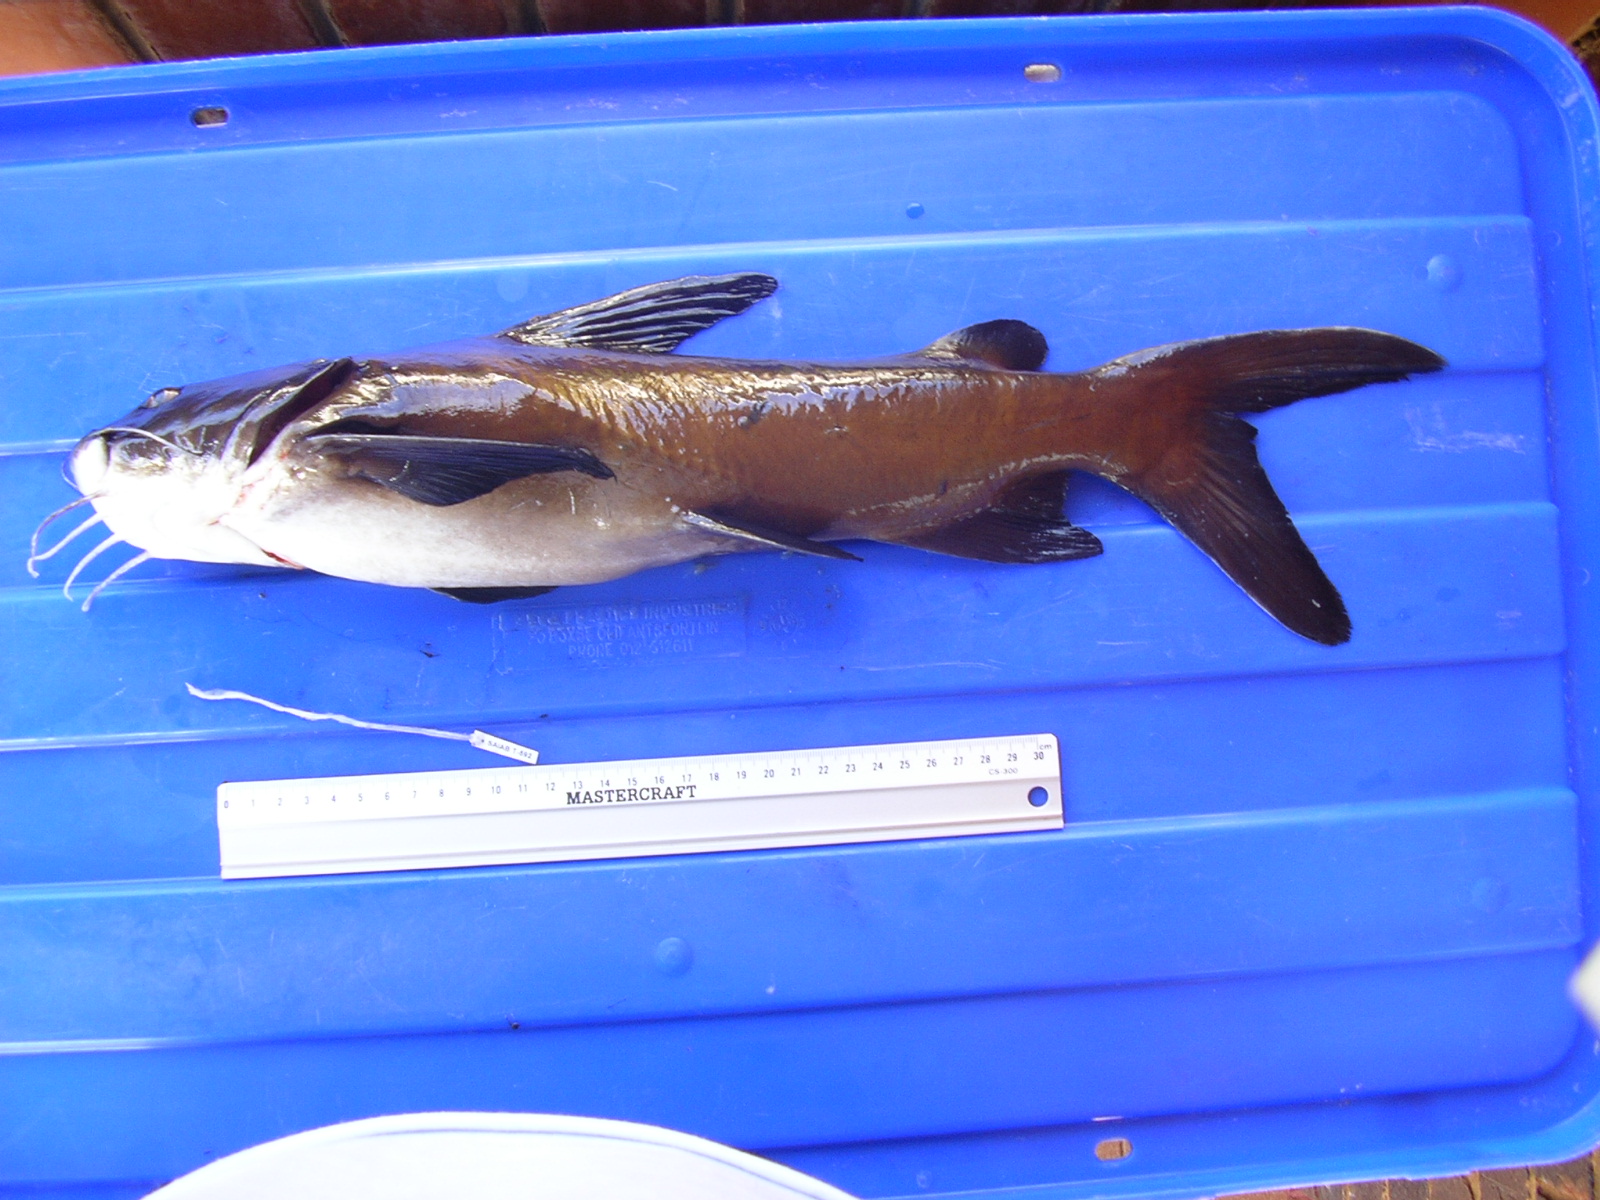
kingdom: Animalia
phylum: Chordata
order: Siluriformes
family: Ariidae
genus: Galeichthys
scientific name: Galeichthys
